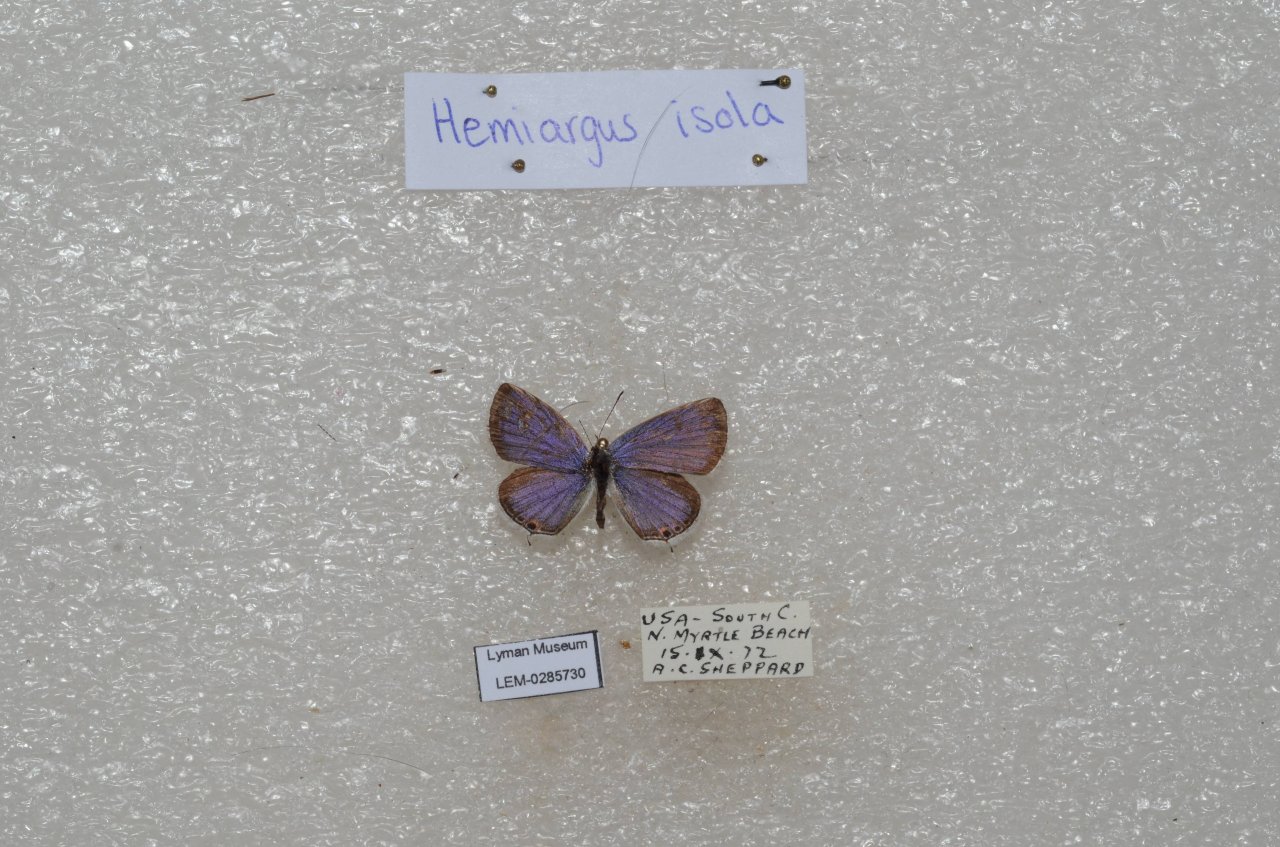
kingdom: Animalia
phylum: Arthropoda
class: Insecta
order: Lepidoptera
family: Lycaenidae
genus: Elkalyce
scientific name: Elkalyce comyntas
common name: Eastern Tailed-Blue
